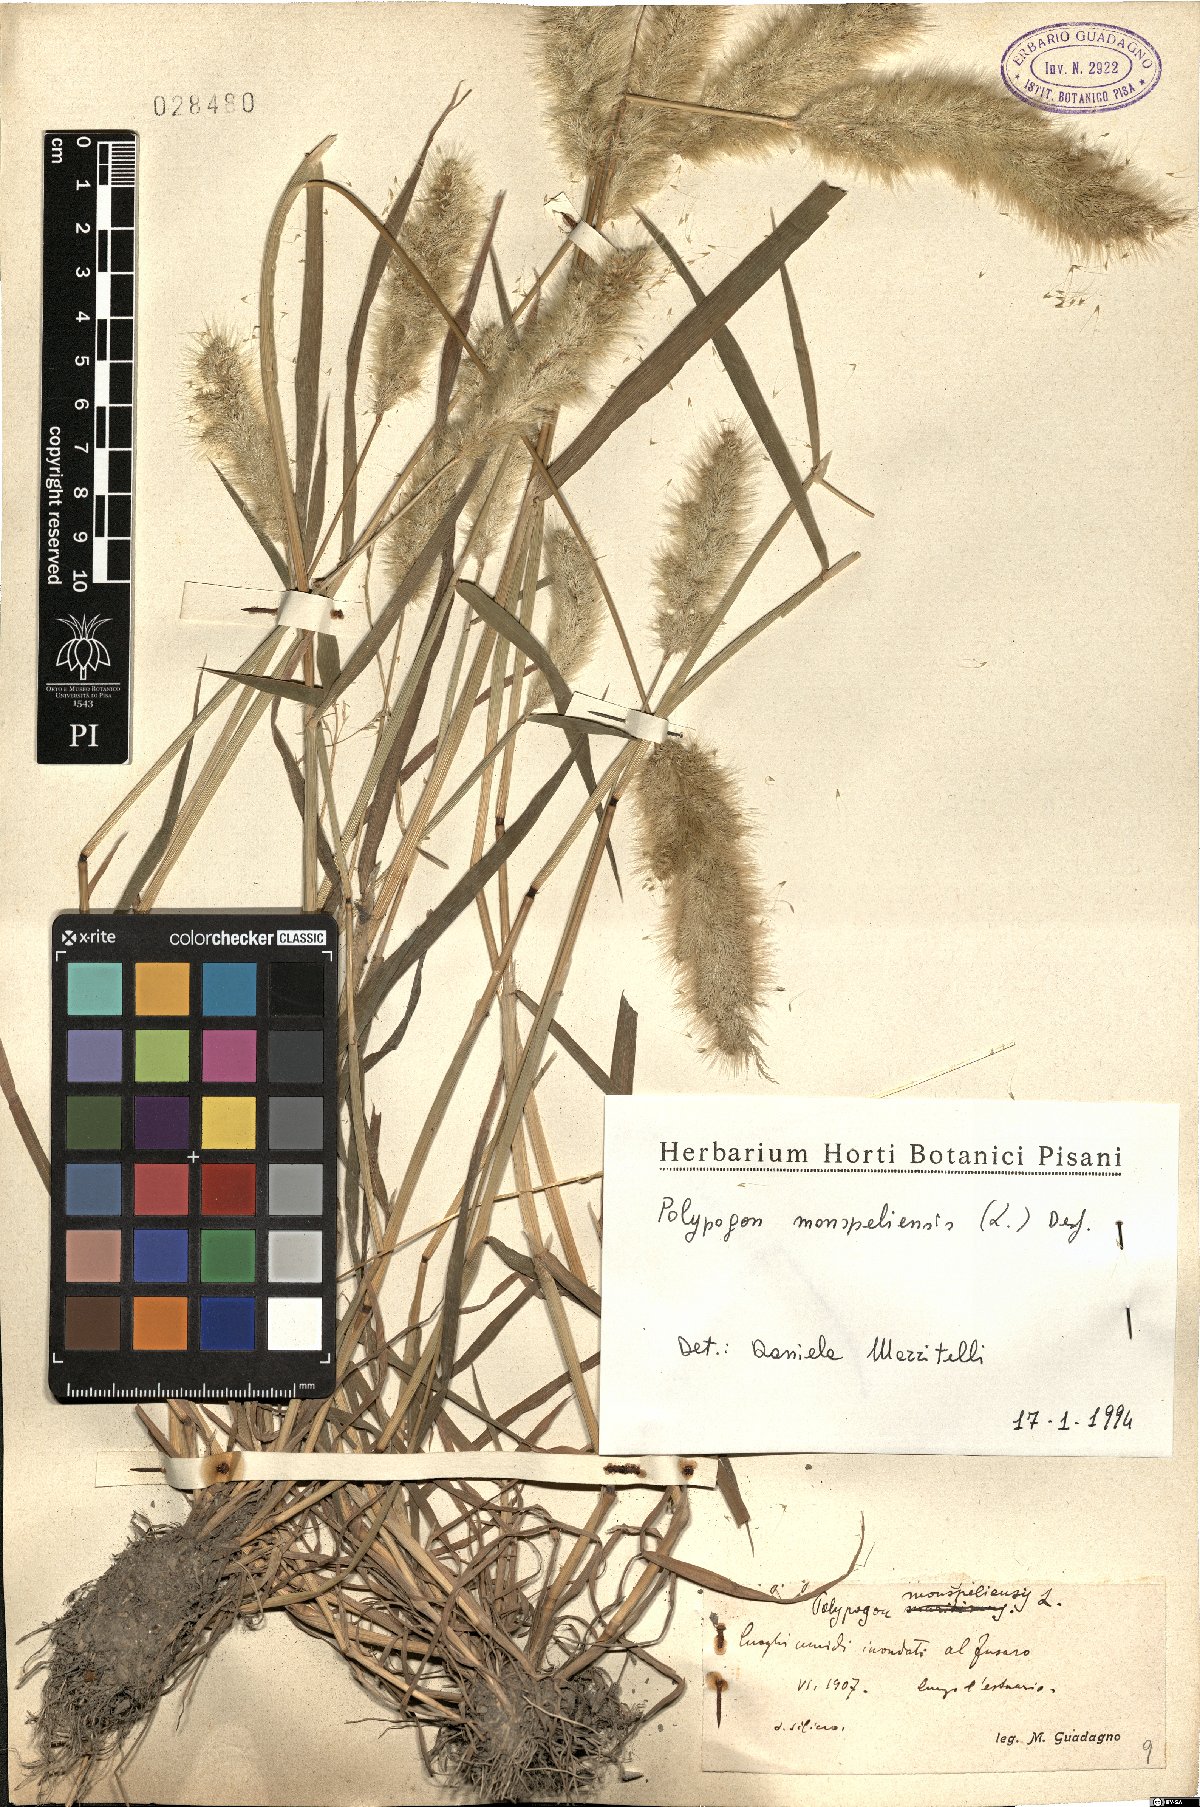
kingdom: Plantae
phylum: Tracheophyta
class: Liliopsida
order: Poales
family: Poaceae
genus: Polypogon
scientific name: Polypogon monspeliensis
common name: Annual rabbitsfoot grass
